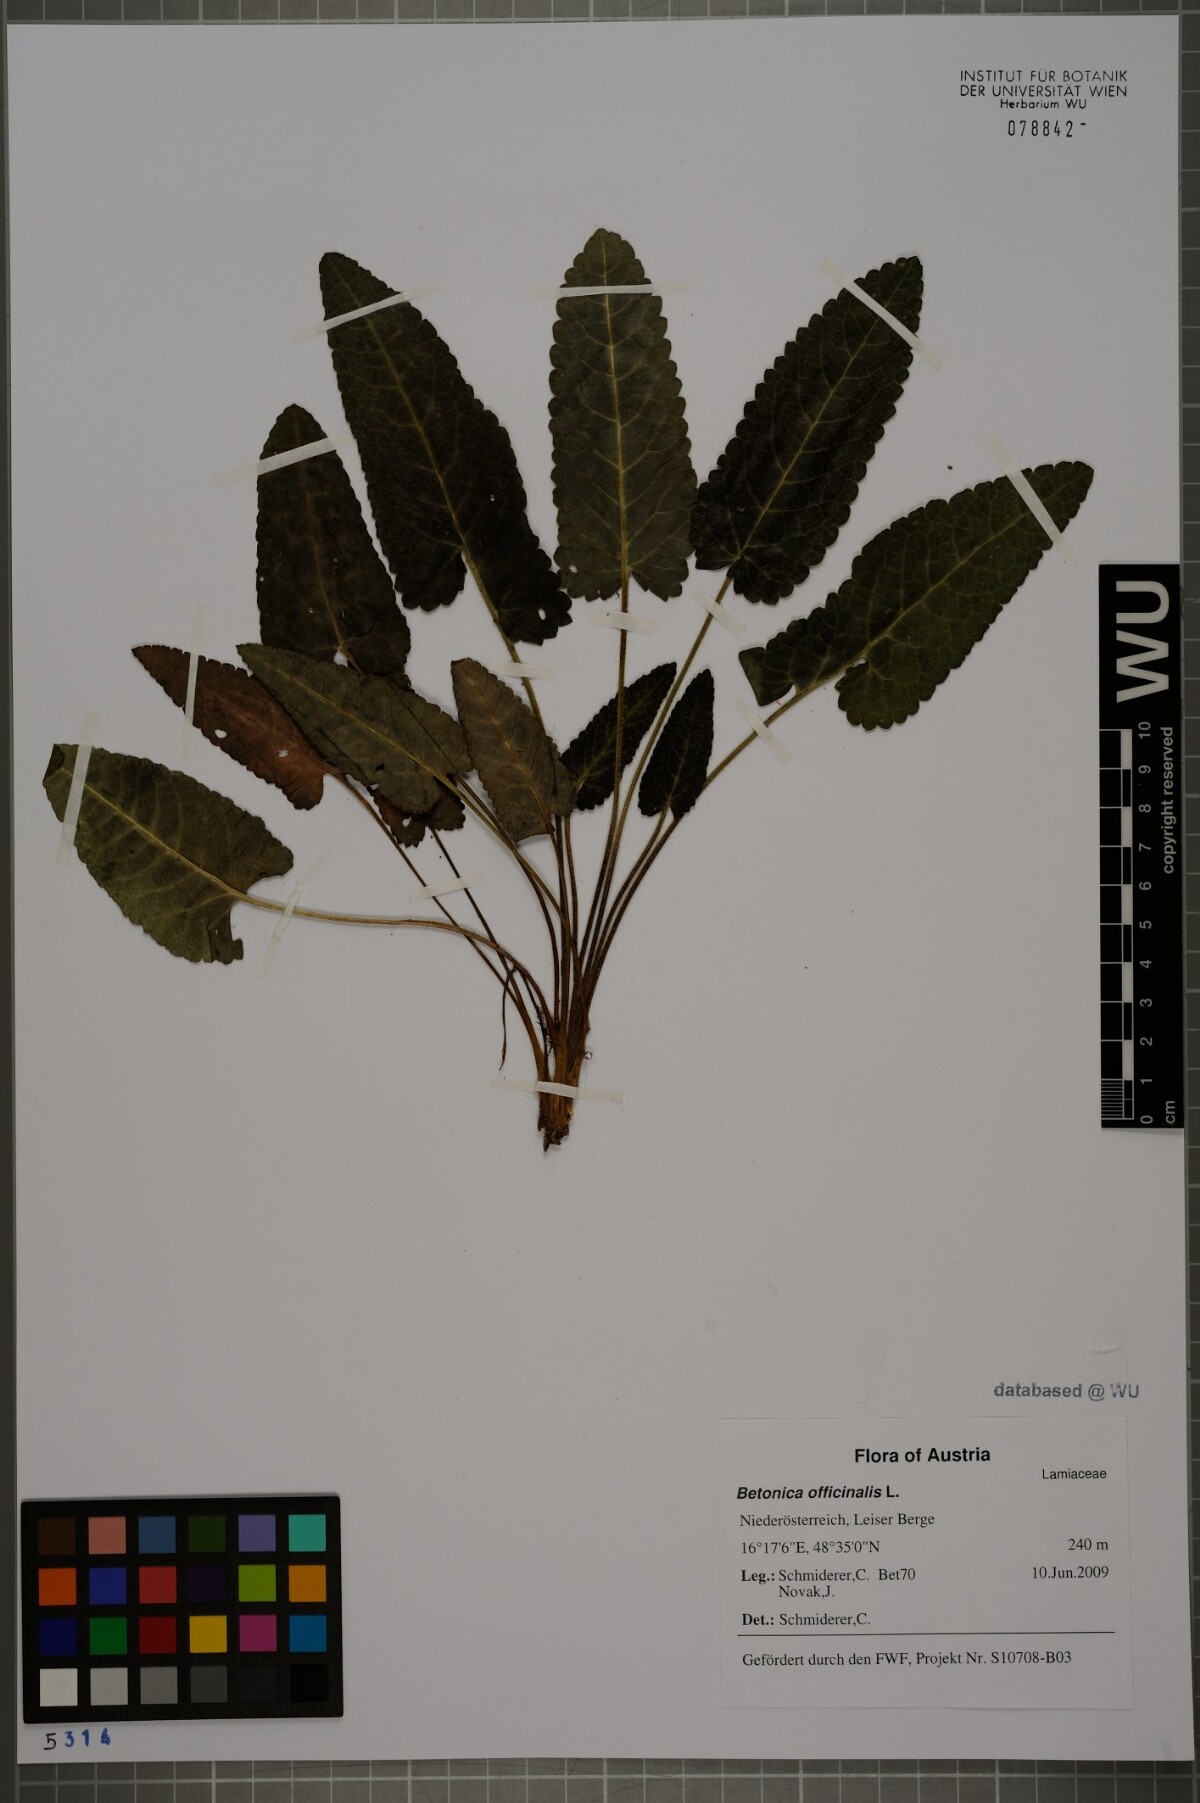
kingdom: Plantae
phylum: Tracheophyta
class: Magnoliopsida
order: Lamiales
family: Lamiaceae
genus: Betonica
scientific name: Betonica officinalis
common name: Bishop's-wort
